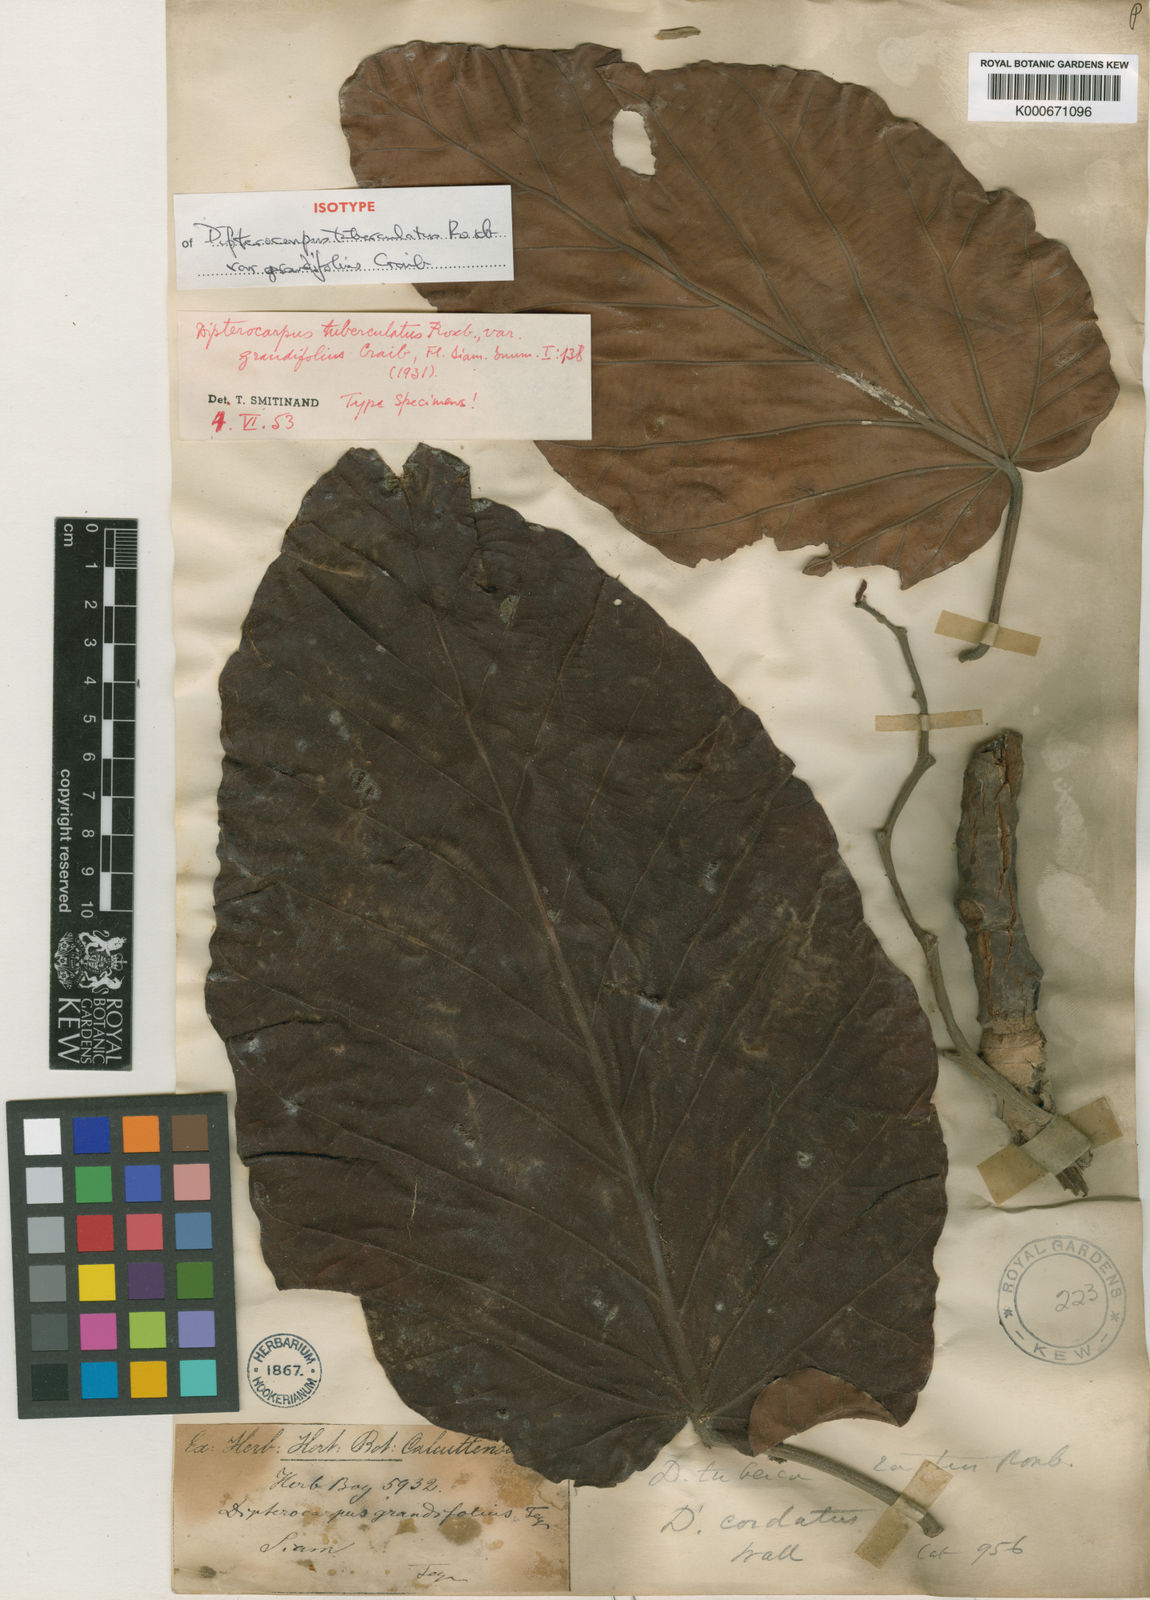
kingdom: Plantae
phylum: Tracheophyta
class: Magnoliopsida
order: Malvales
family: Dipterocarpaceae
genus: Dipterocarpus
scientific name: Dipterocarpus tuberculatus
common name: Eng gurjuntree
